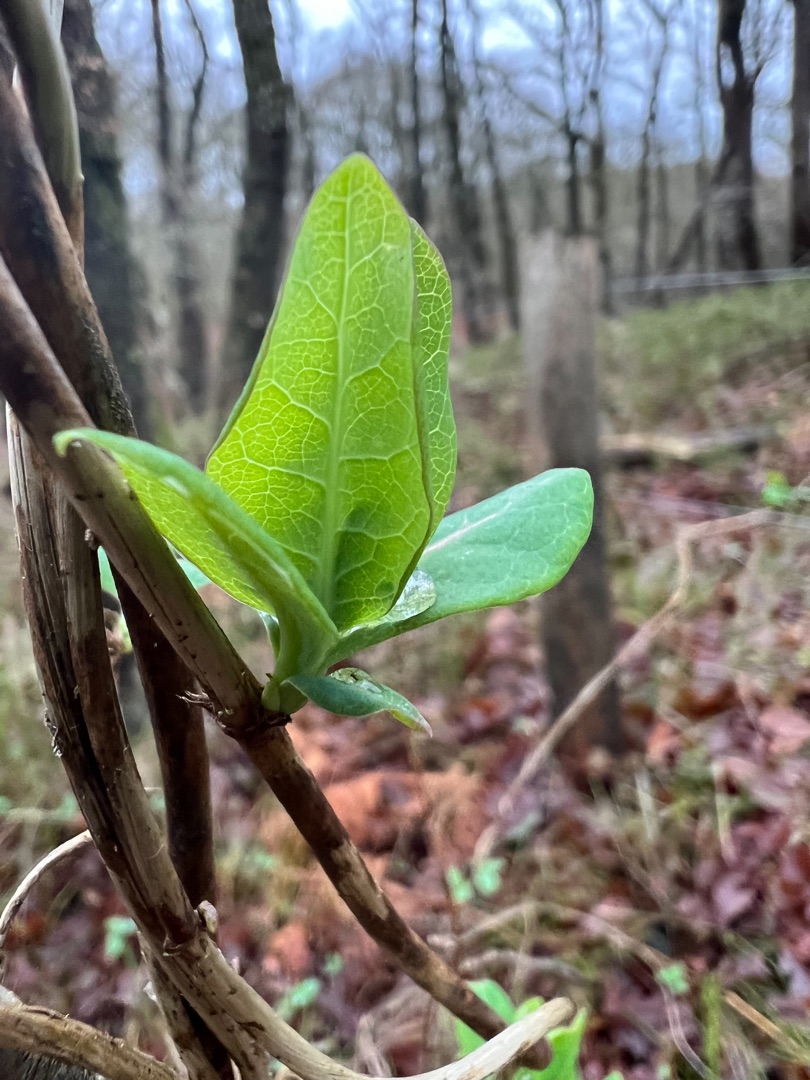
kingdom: Plantae
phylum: Tracheophyta
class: Magnoliopsida
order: Dipsacales
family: Caprifoliaceae
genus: Lonicera
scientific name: Lonicera periclymenum
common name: Almindelig gedeblad
